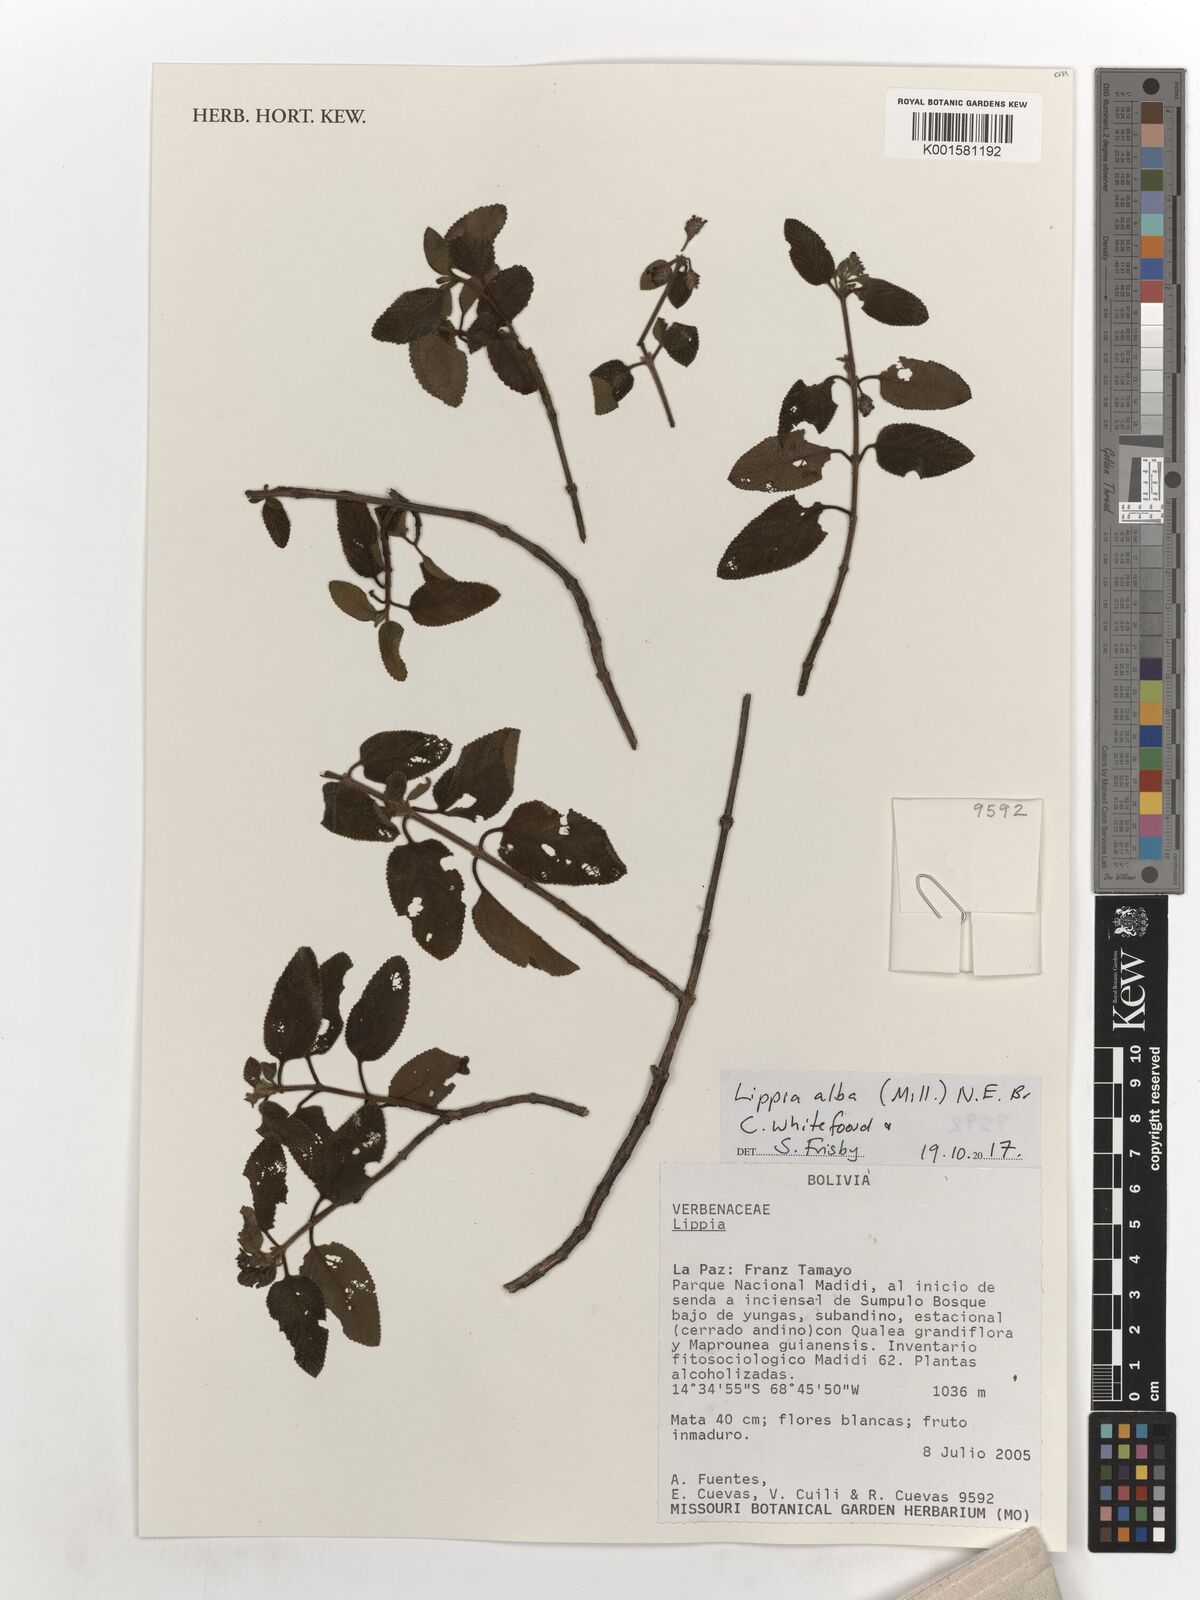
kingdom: Plantae
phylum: Tracheophyta
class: Magnoliopsida
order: Lamiales
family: Verbenaceae
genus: Lippia
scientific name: Lippia alba
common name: Bushy matgrass
